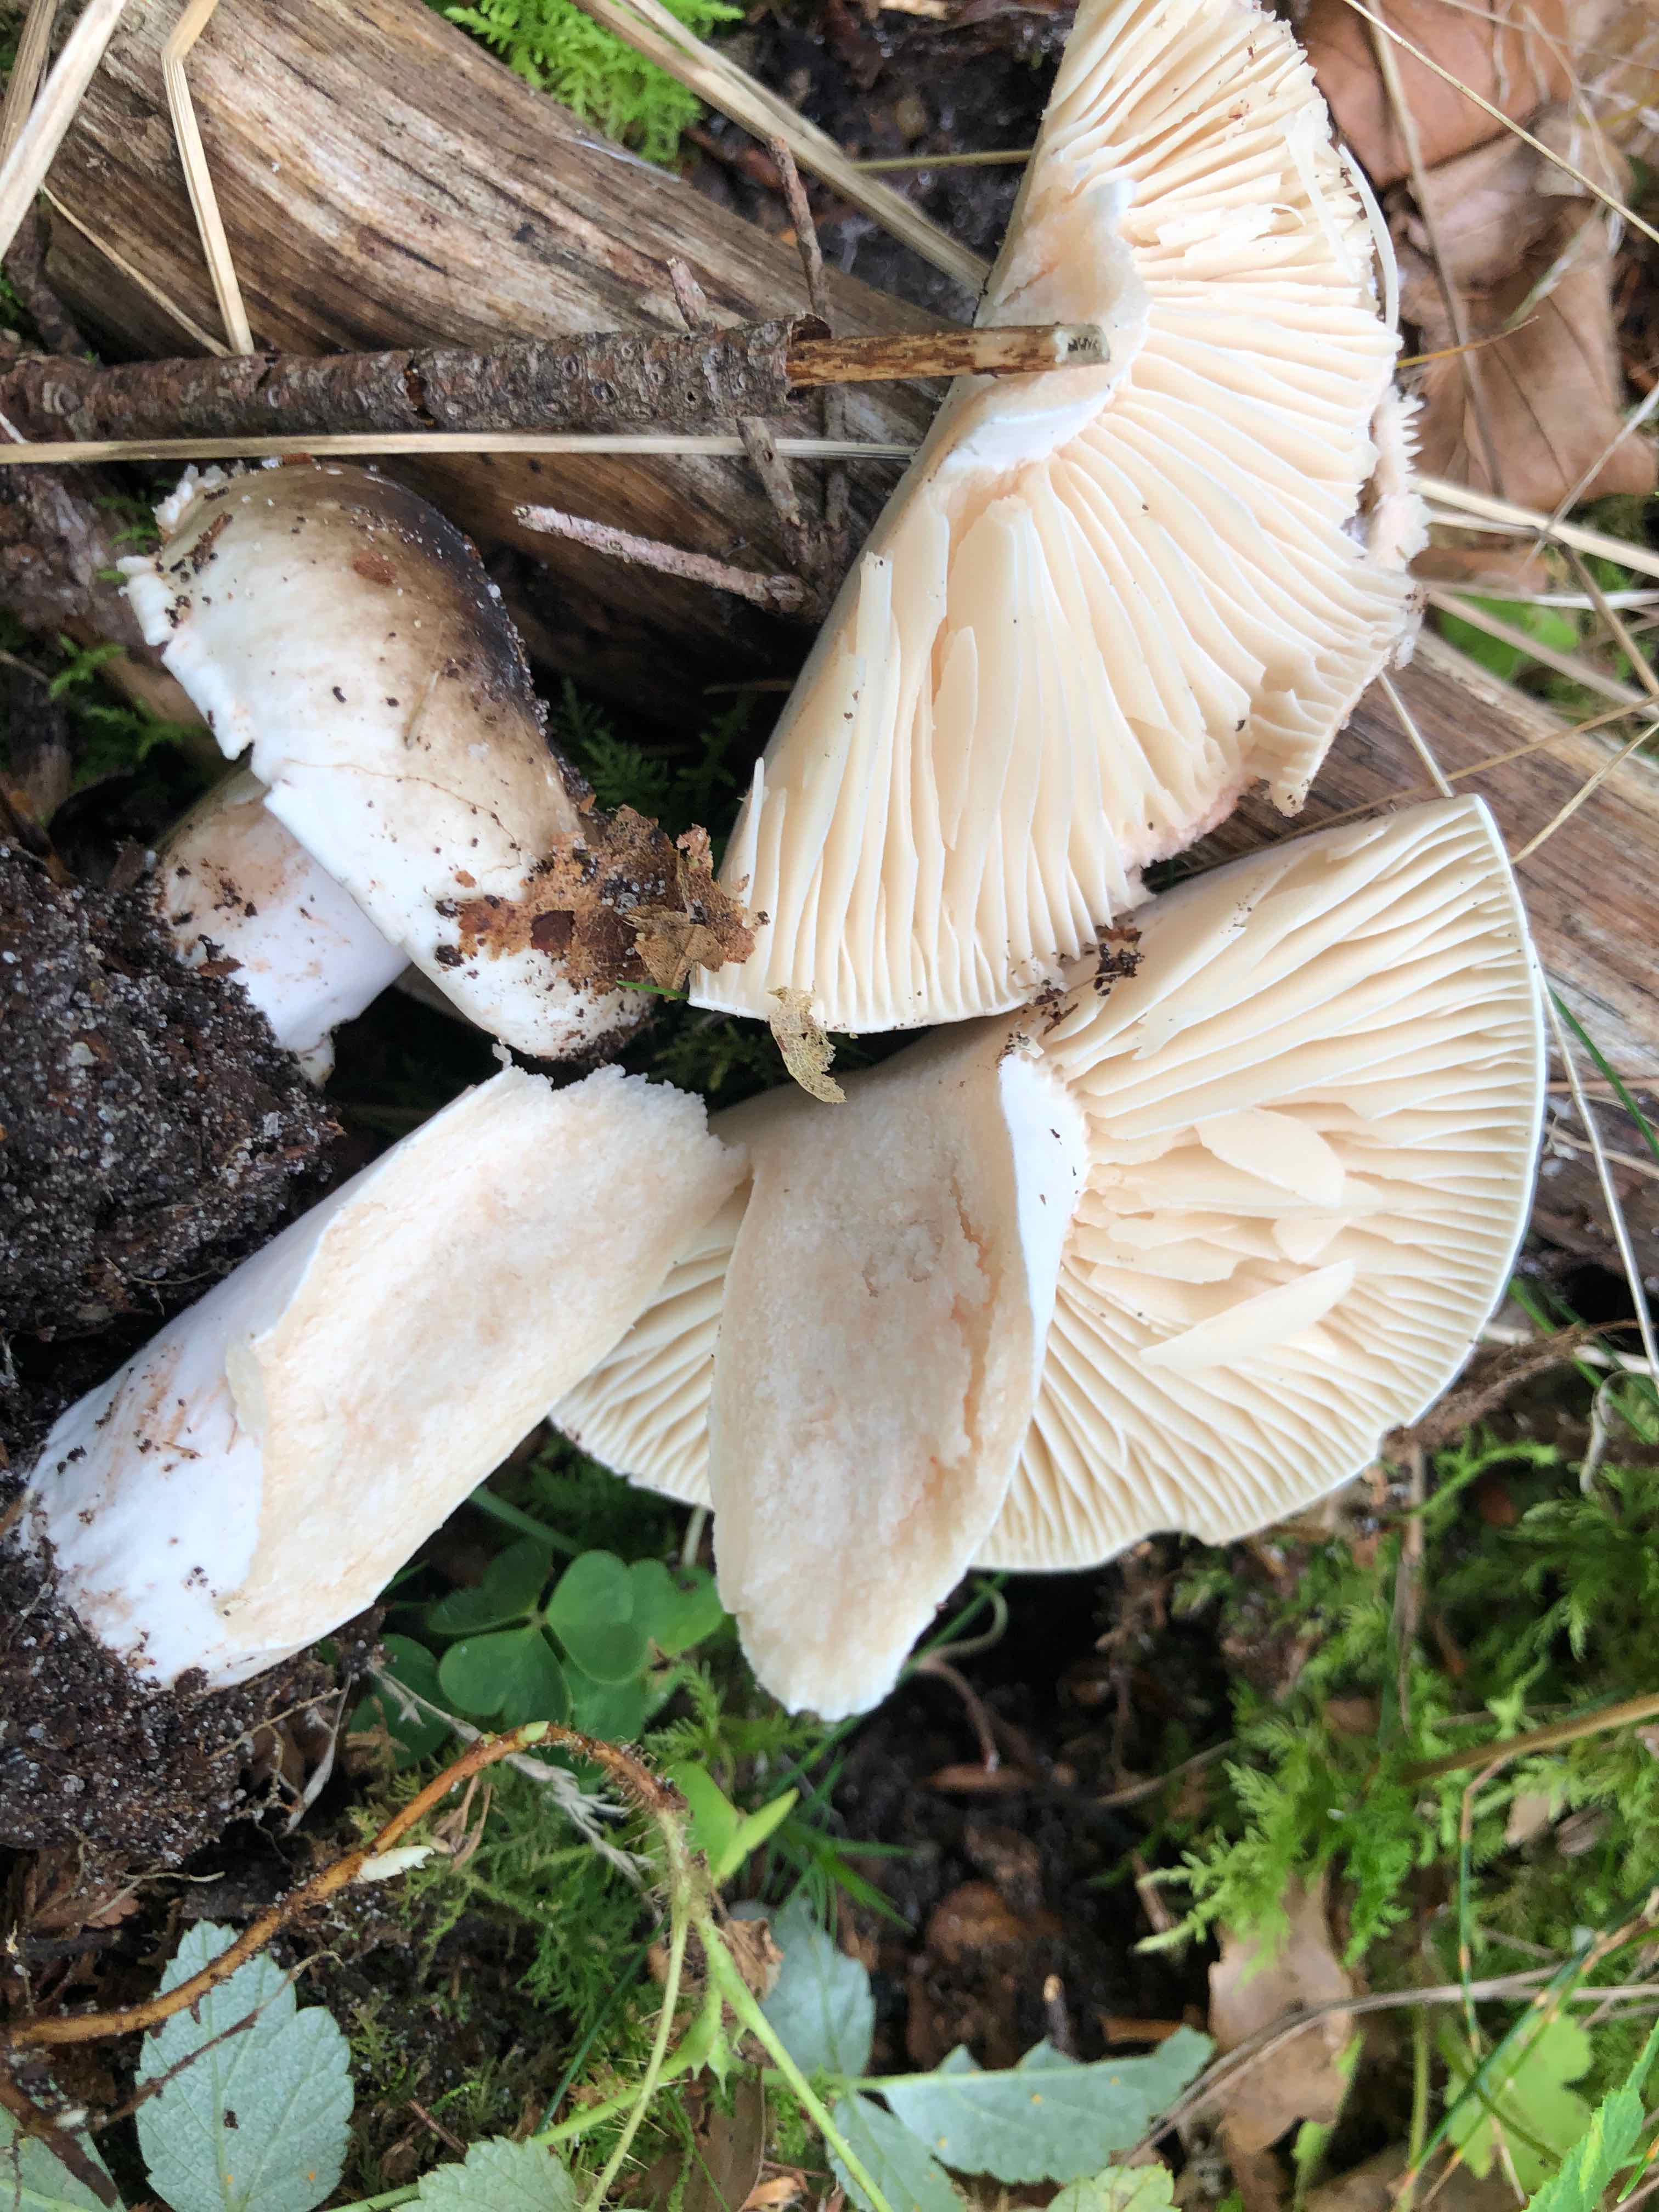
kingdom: Fungi
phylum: Basidiomycota
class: Agaricomycetes
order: Russulales
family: Russulaceae
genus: Russula
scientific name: Russula adusta
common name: sværtende skørhat
